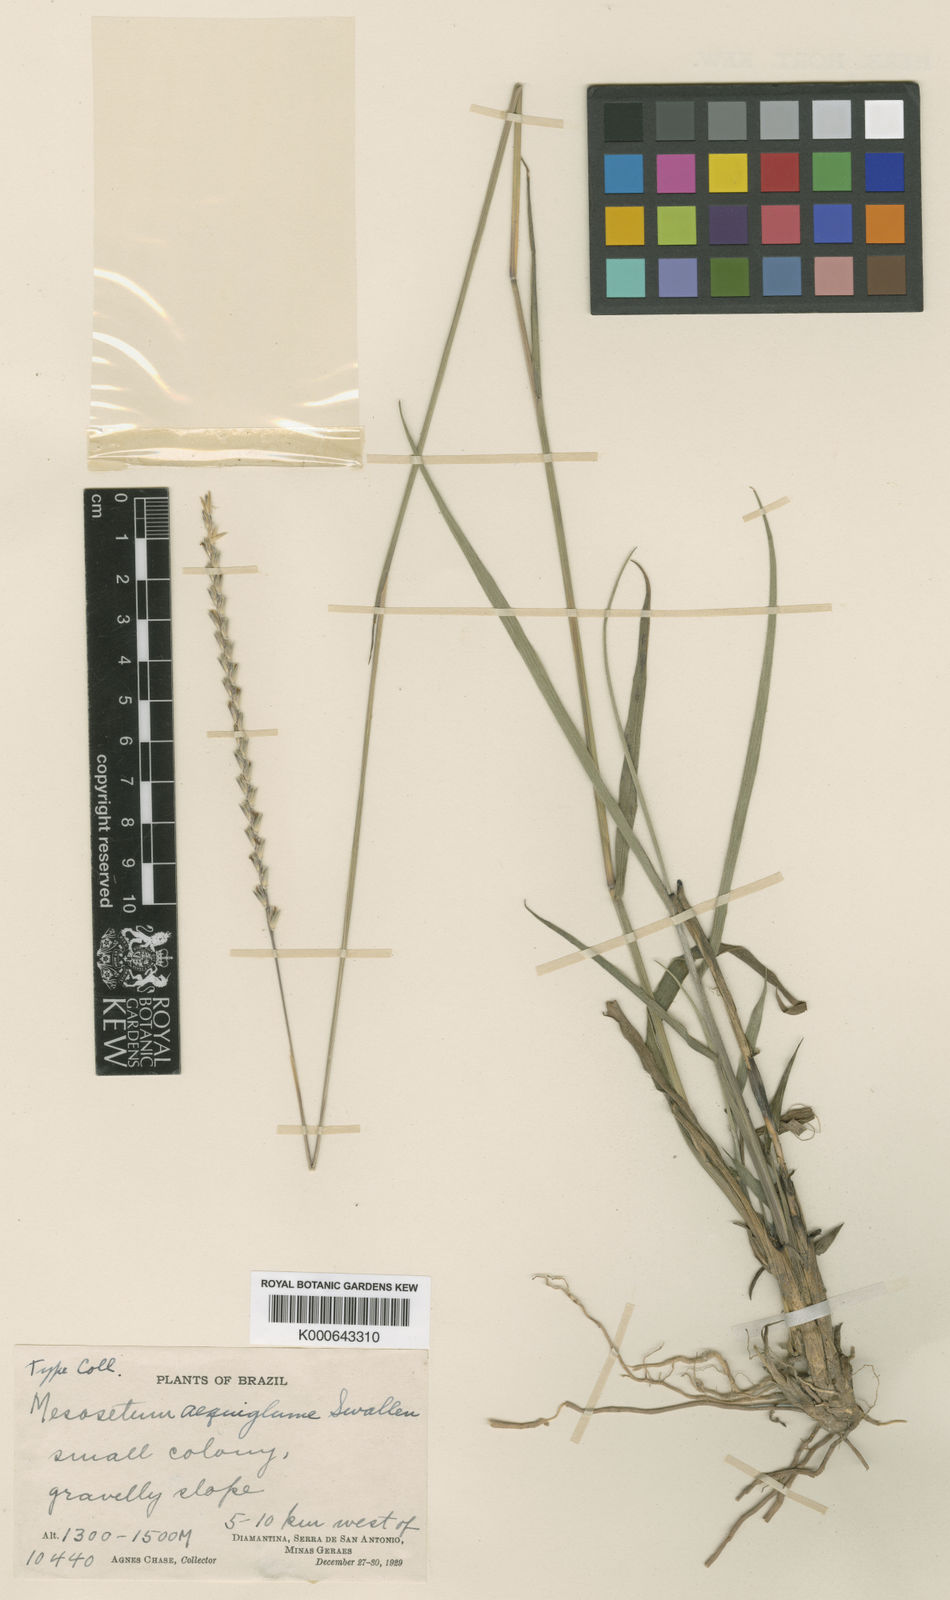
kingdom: Plantae
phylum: Tracheophyta
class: Liliopsida
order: Poales
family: Poaceae
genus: Mesosetum
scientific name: Mesosetum arenarium
